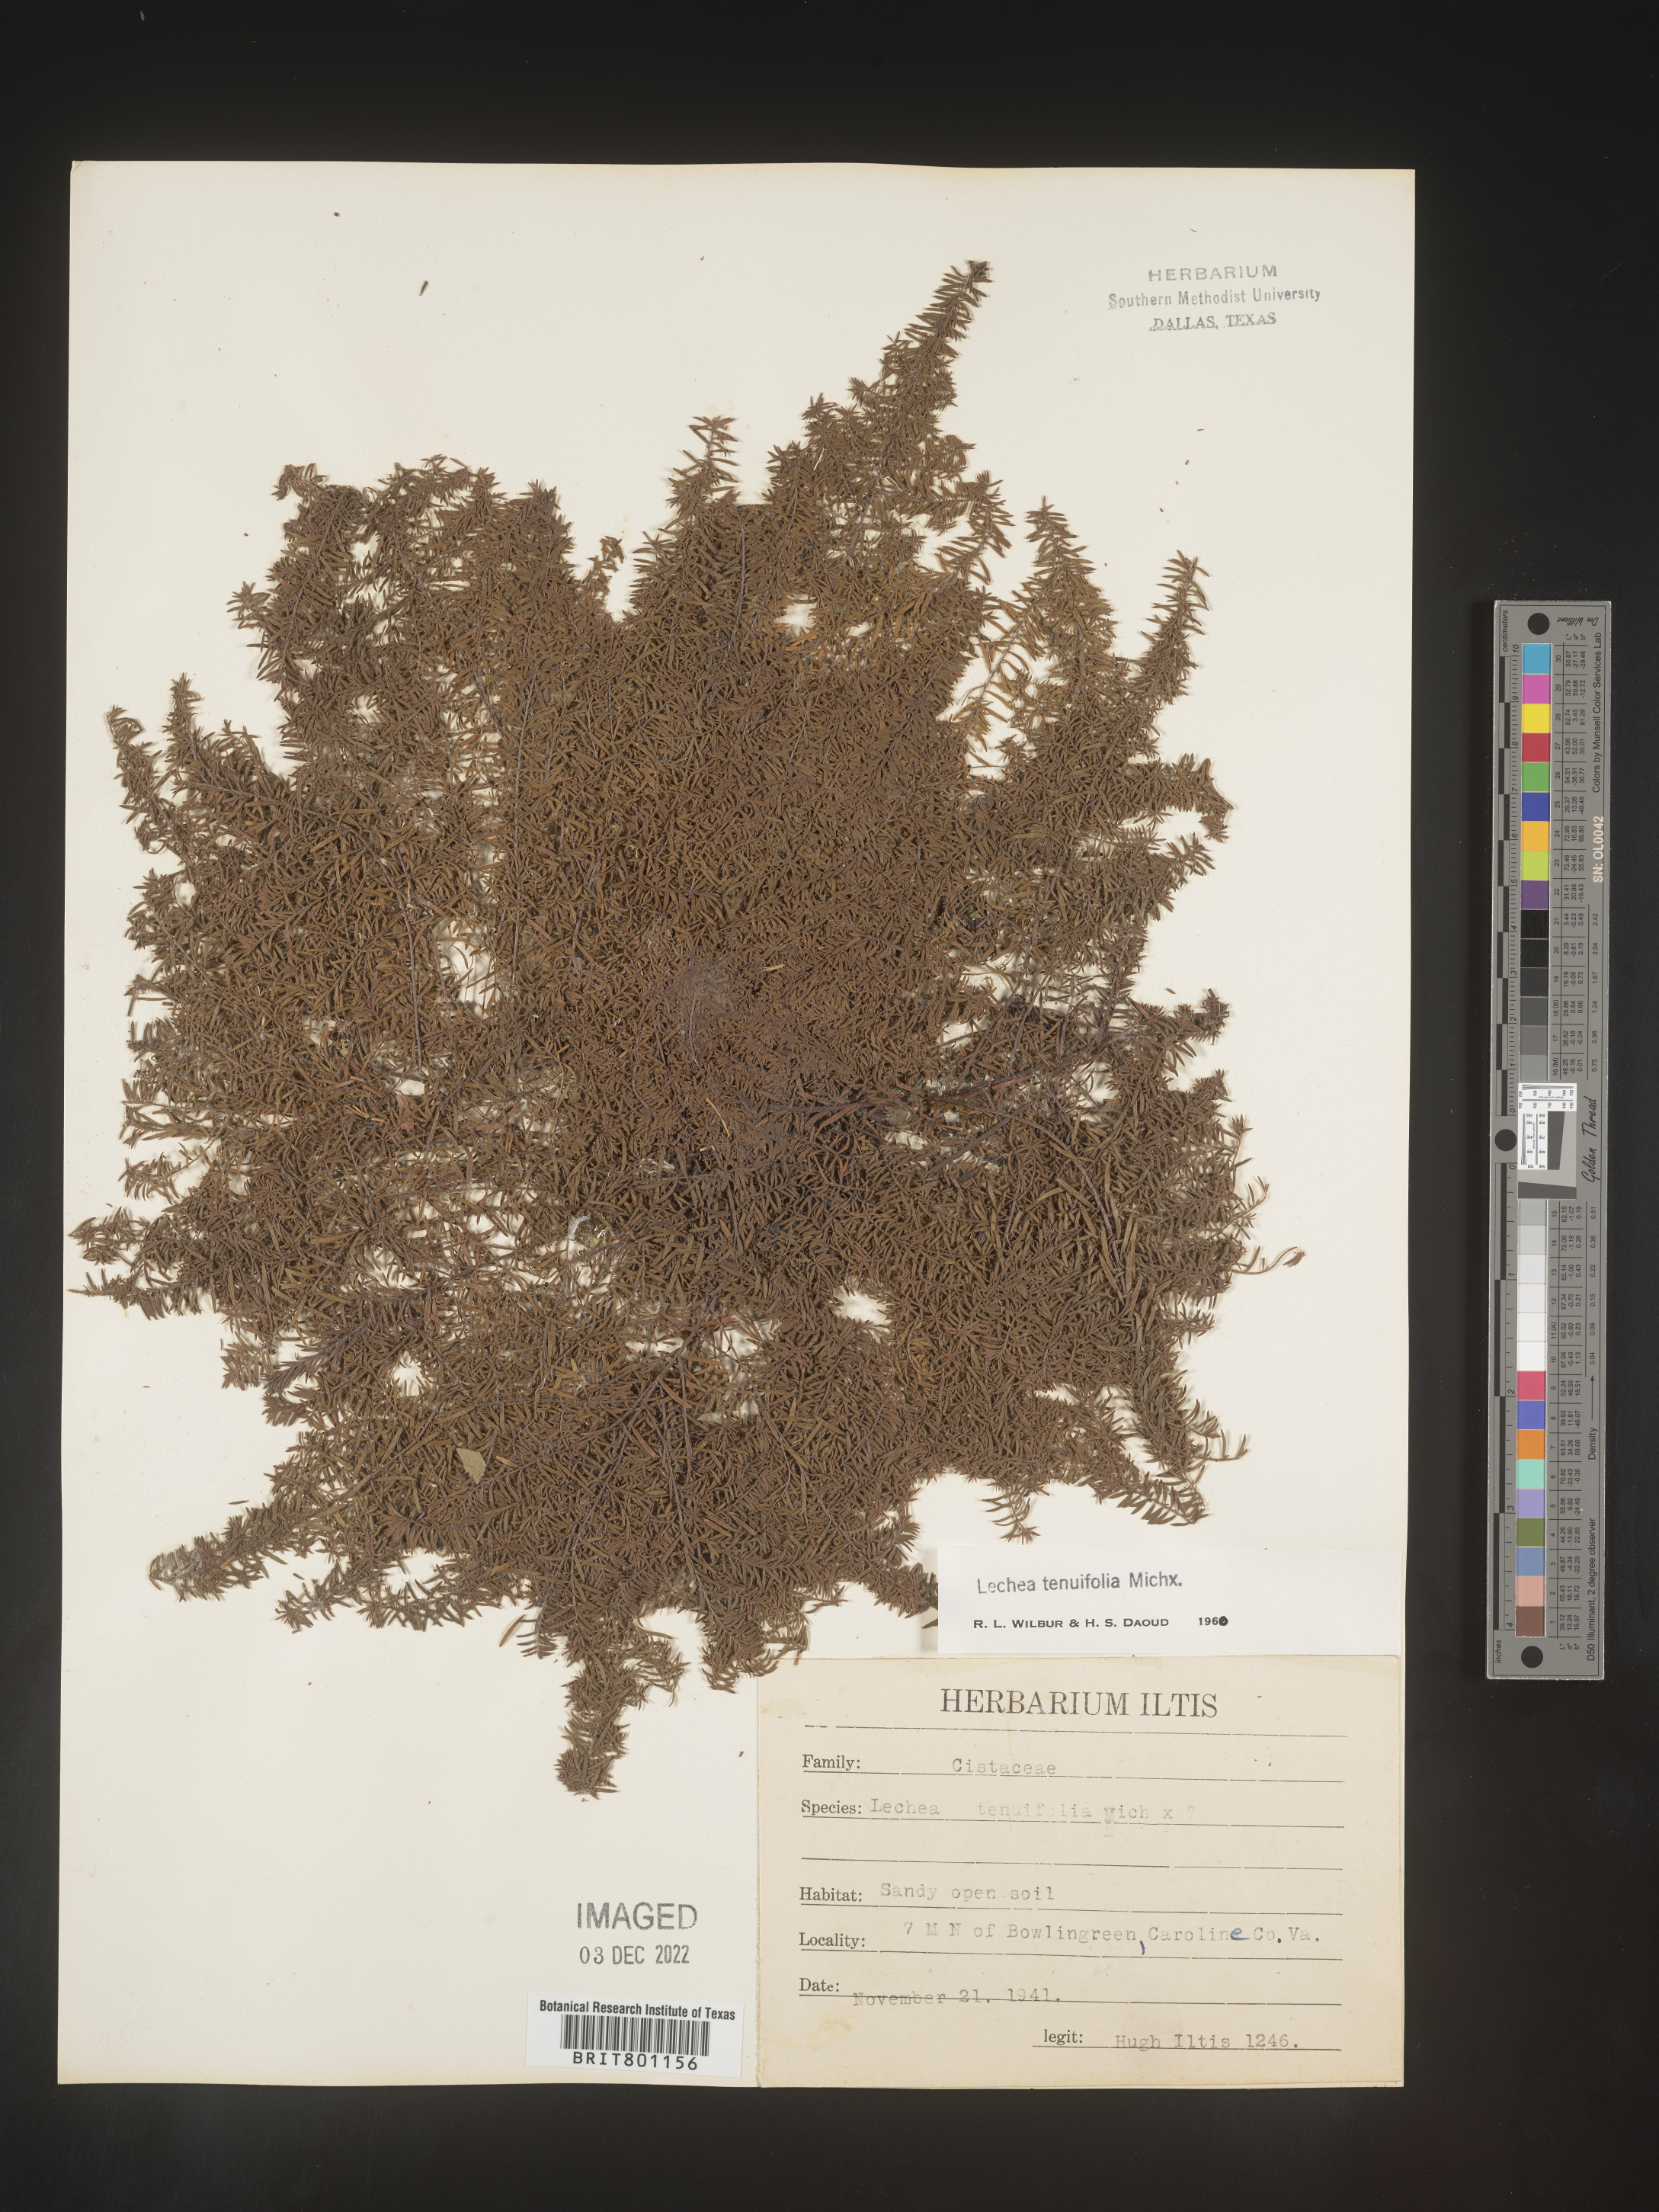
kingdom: Plantae
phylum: Tracheophyta
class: Magnoliopsida
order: Malvales
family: Cistaceae
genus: Lechea
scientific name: Lechea tenuifolia
